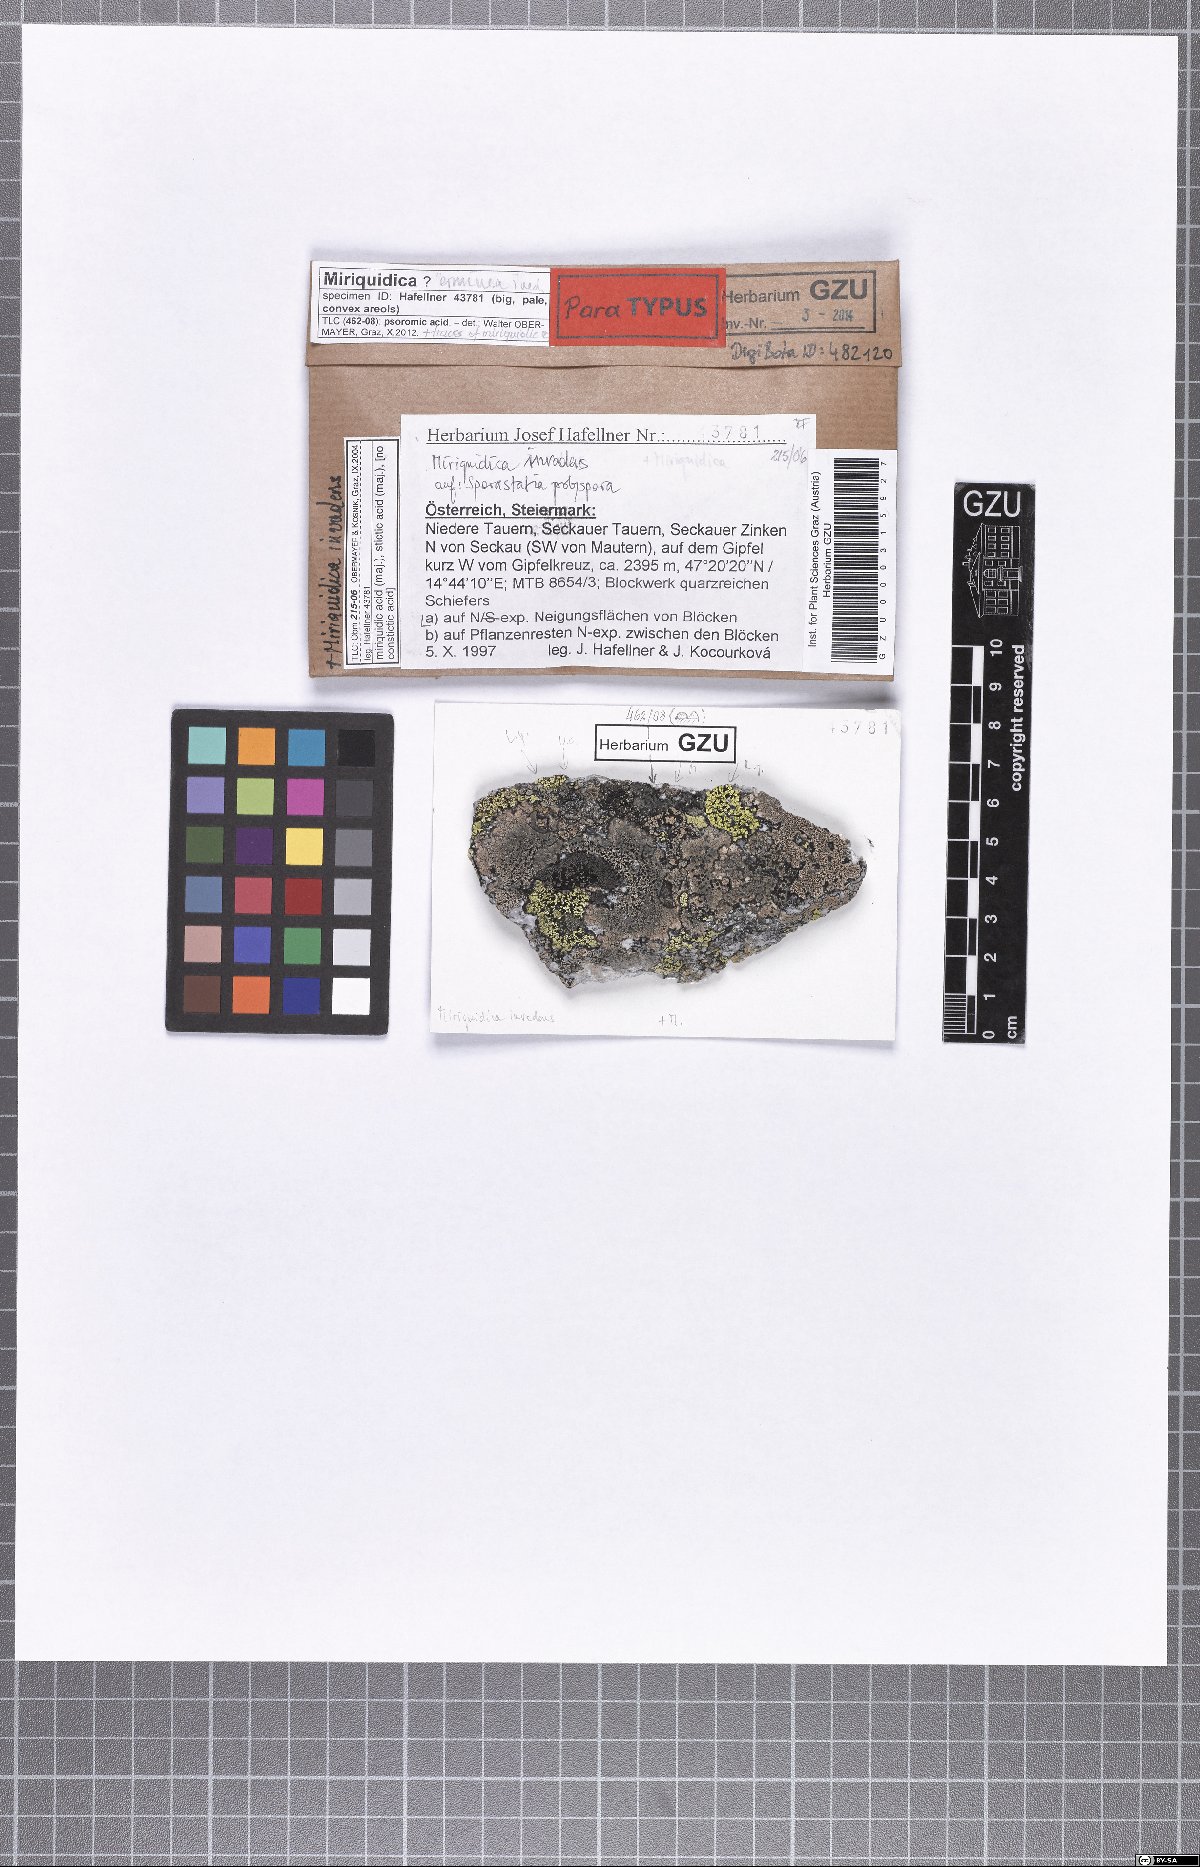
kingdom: Fungi
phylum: Ascomycota
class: Lecanoromycetes
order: Lecanorales
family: Lecanoraceae
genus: Miriquidica
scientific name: Miriquidica invadens
